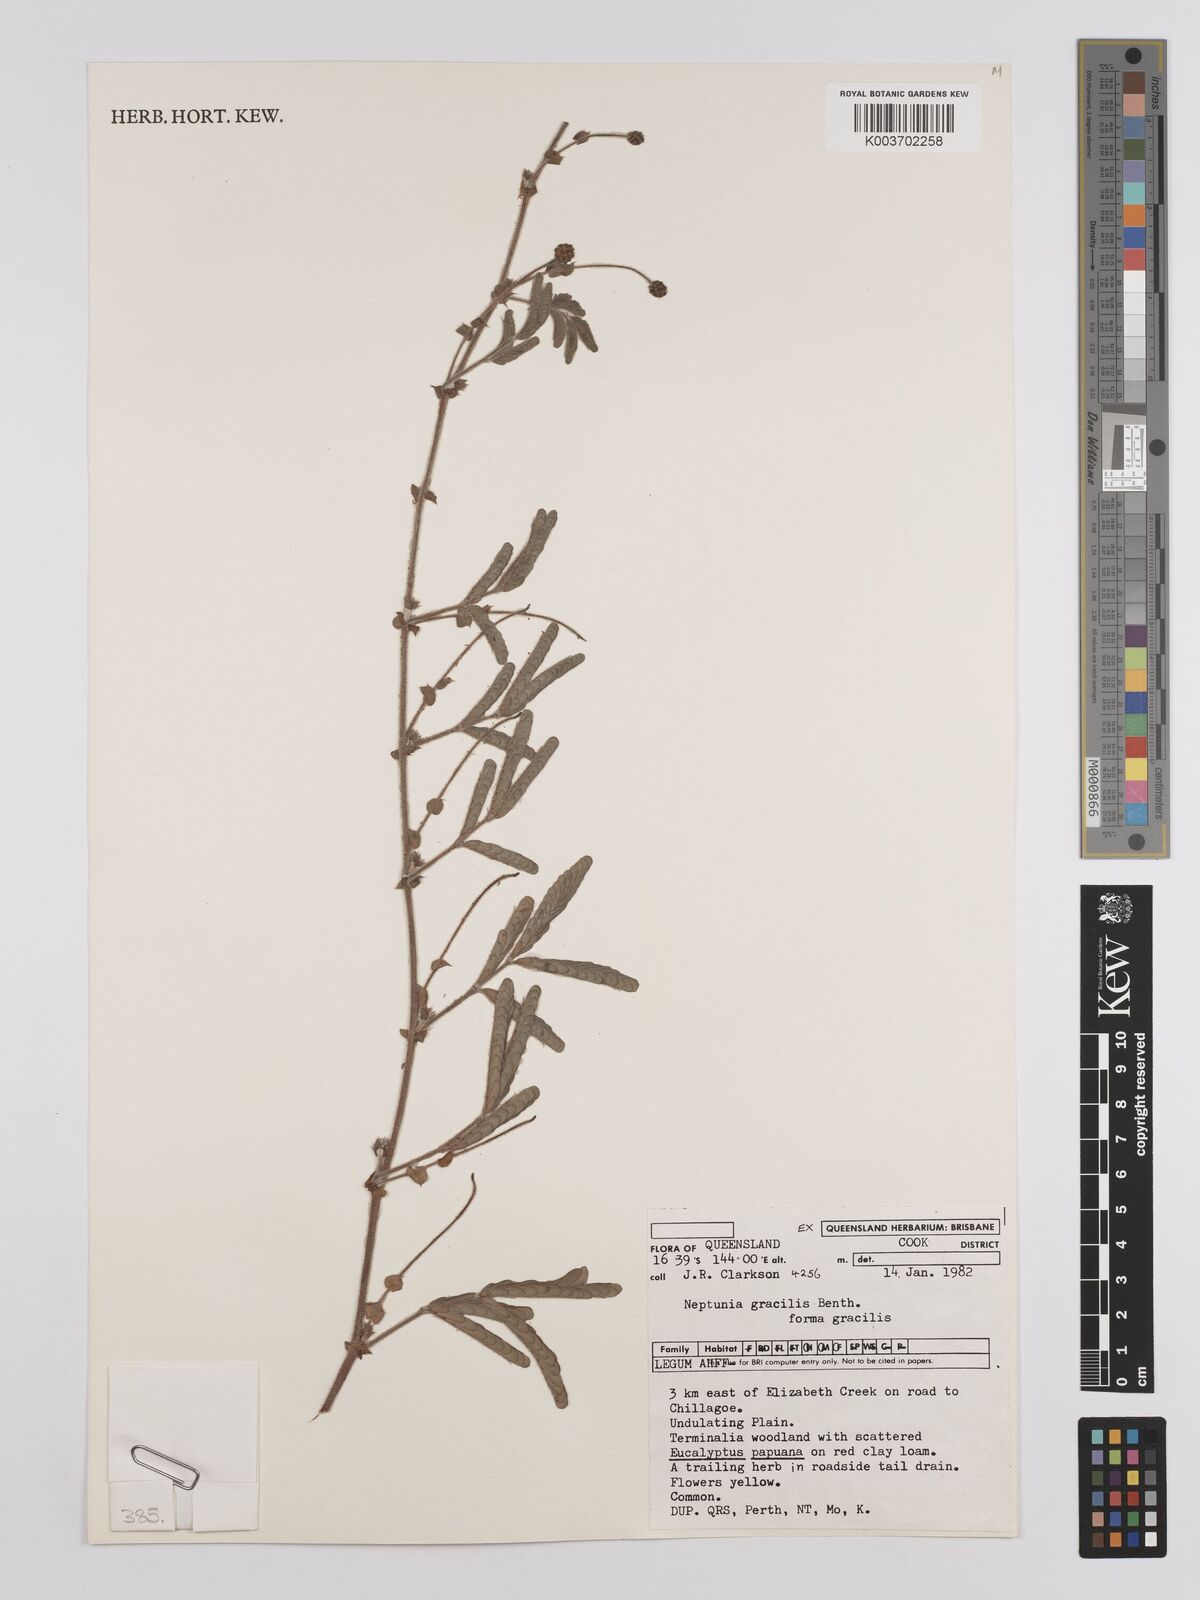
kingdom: Plantae
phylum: Tracheophyta
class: Magnoliopsida
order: Fabales
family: Fabaceae
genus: Neptunia
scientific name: Neptunia gracilis
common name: Sensitive-plant
